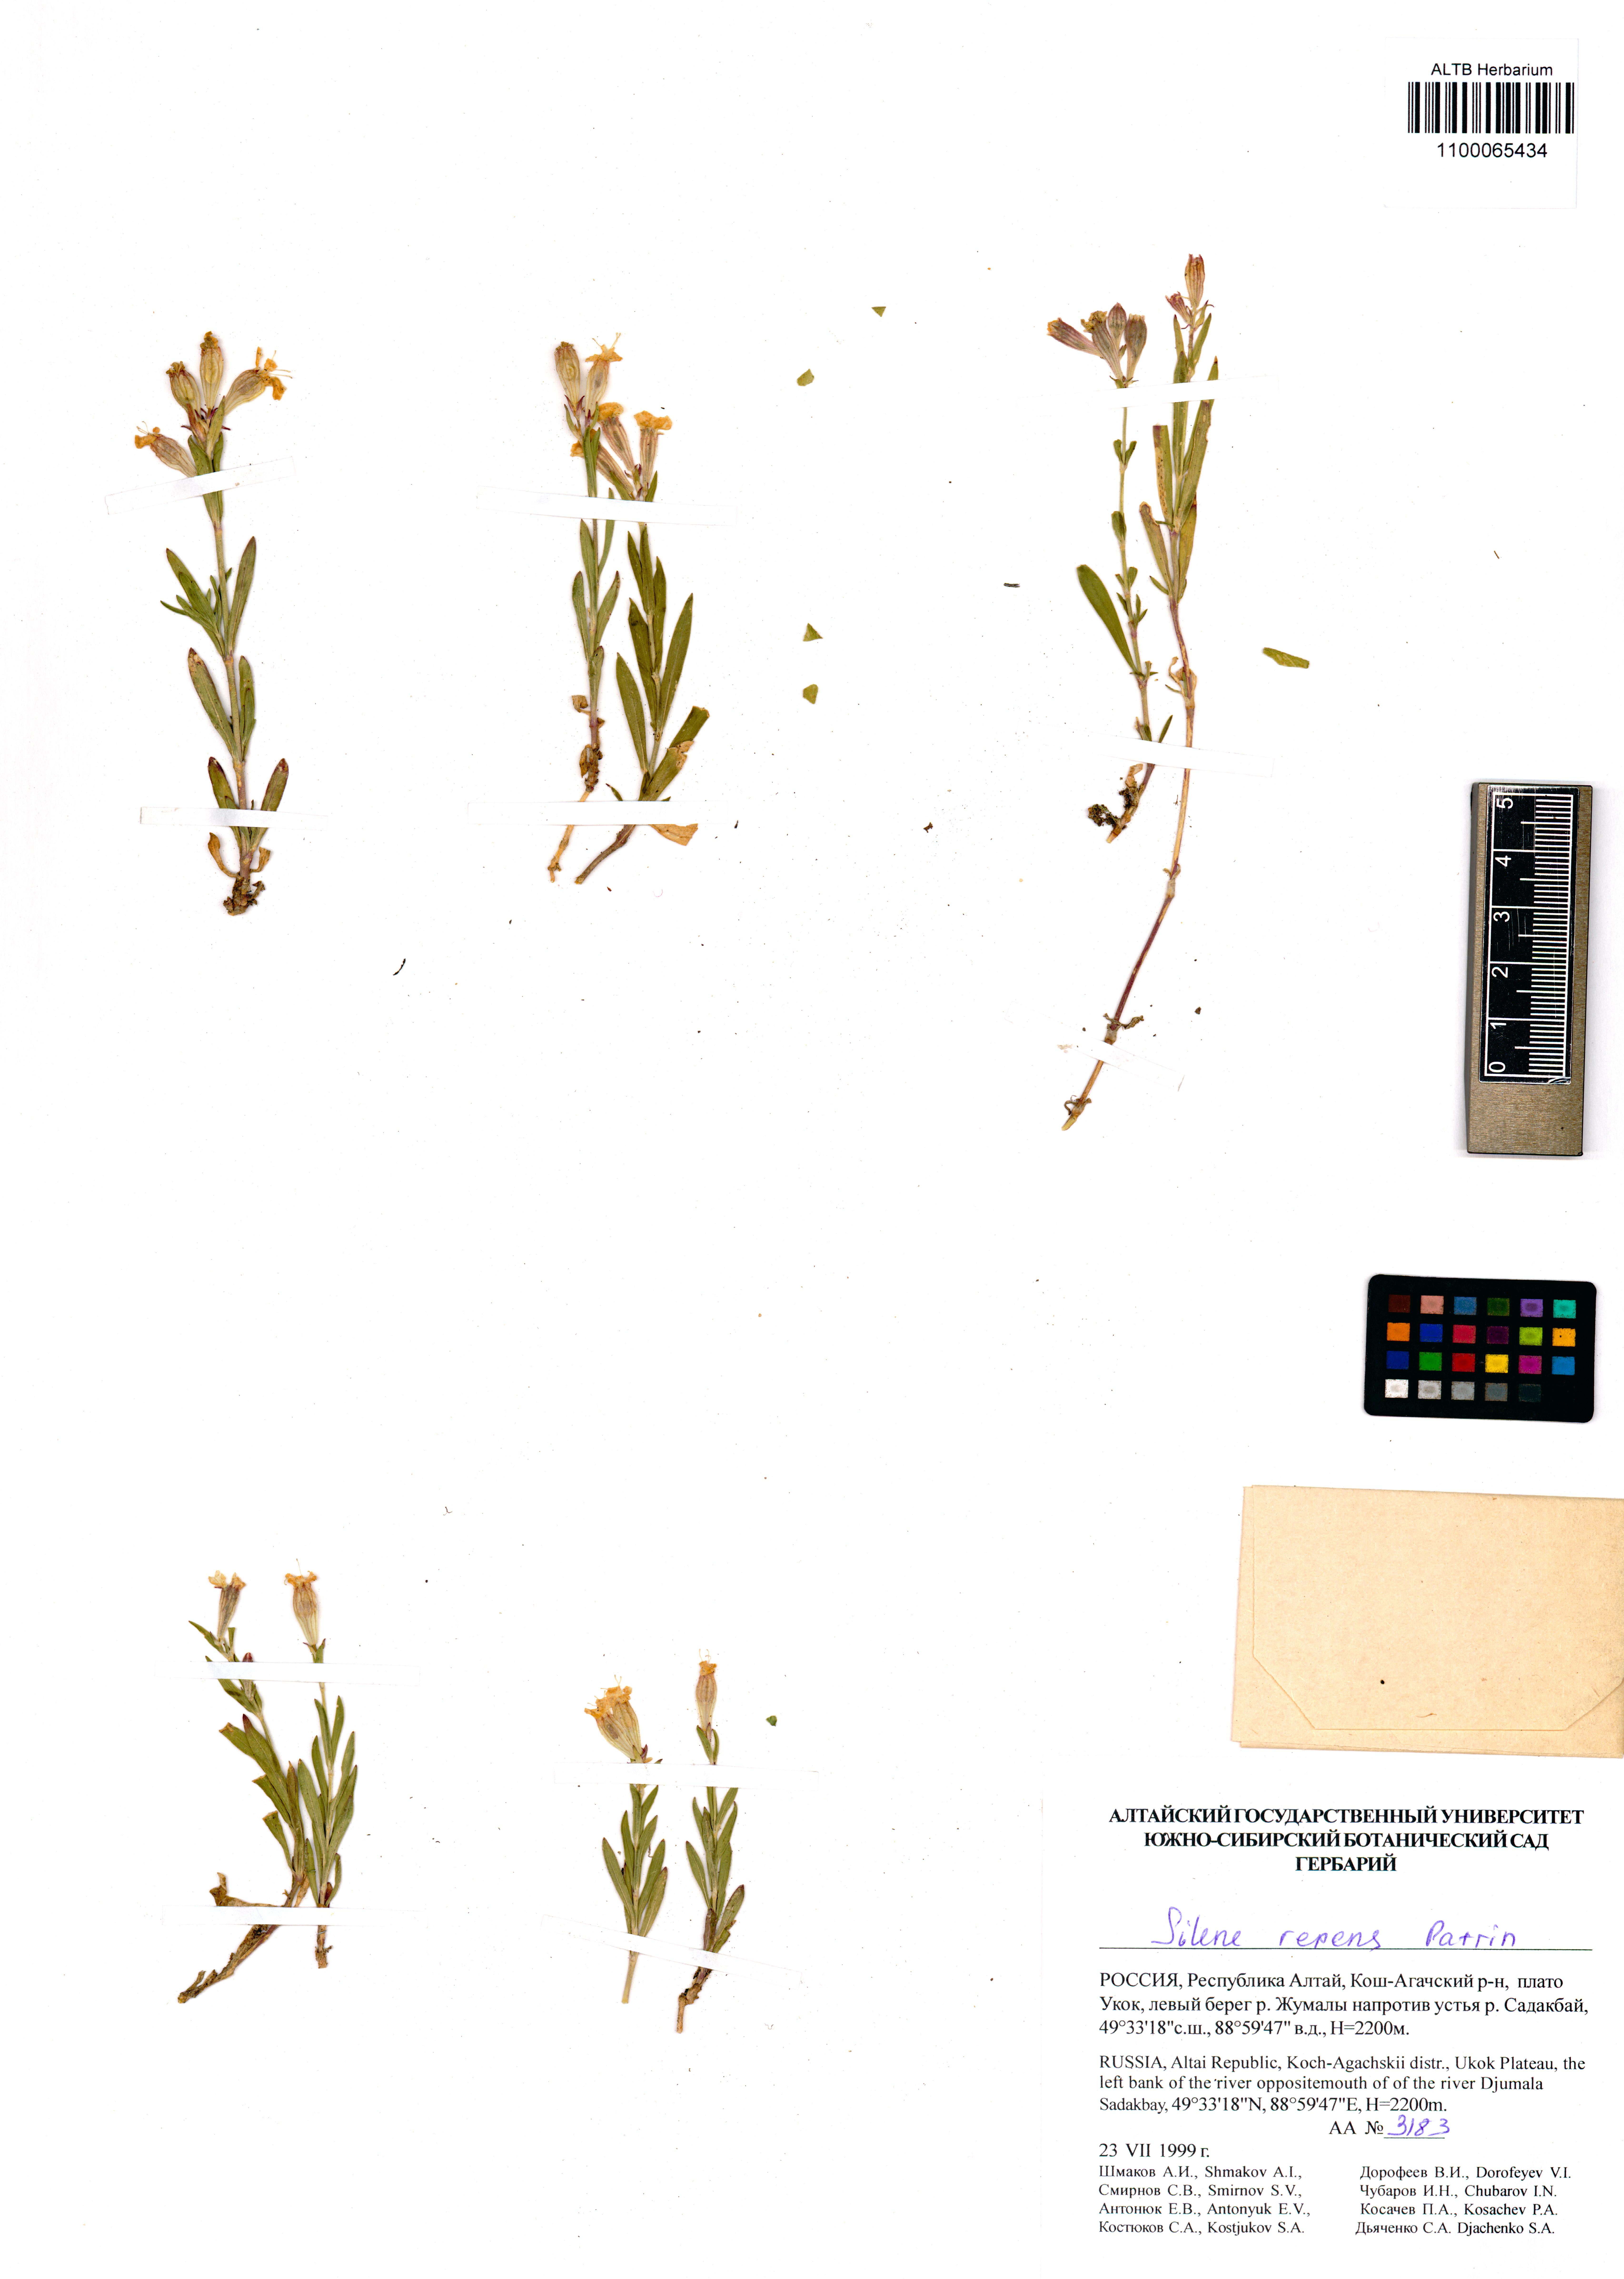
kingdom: Plantae
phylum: Tracheophyta
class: Magnoliopsida
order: Caryophyllales
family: Caryophyllaceae
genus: Silene
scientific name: Silene repens
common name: Pink campion
